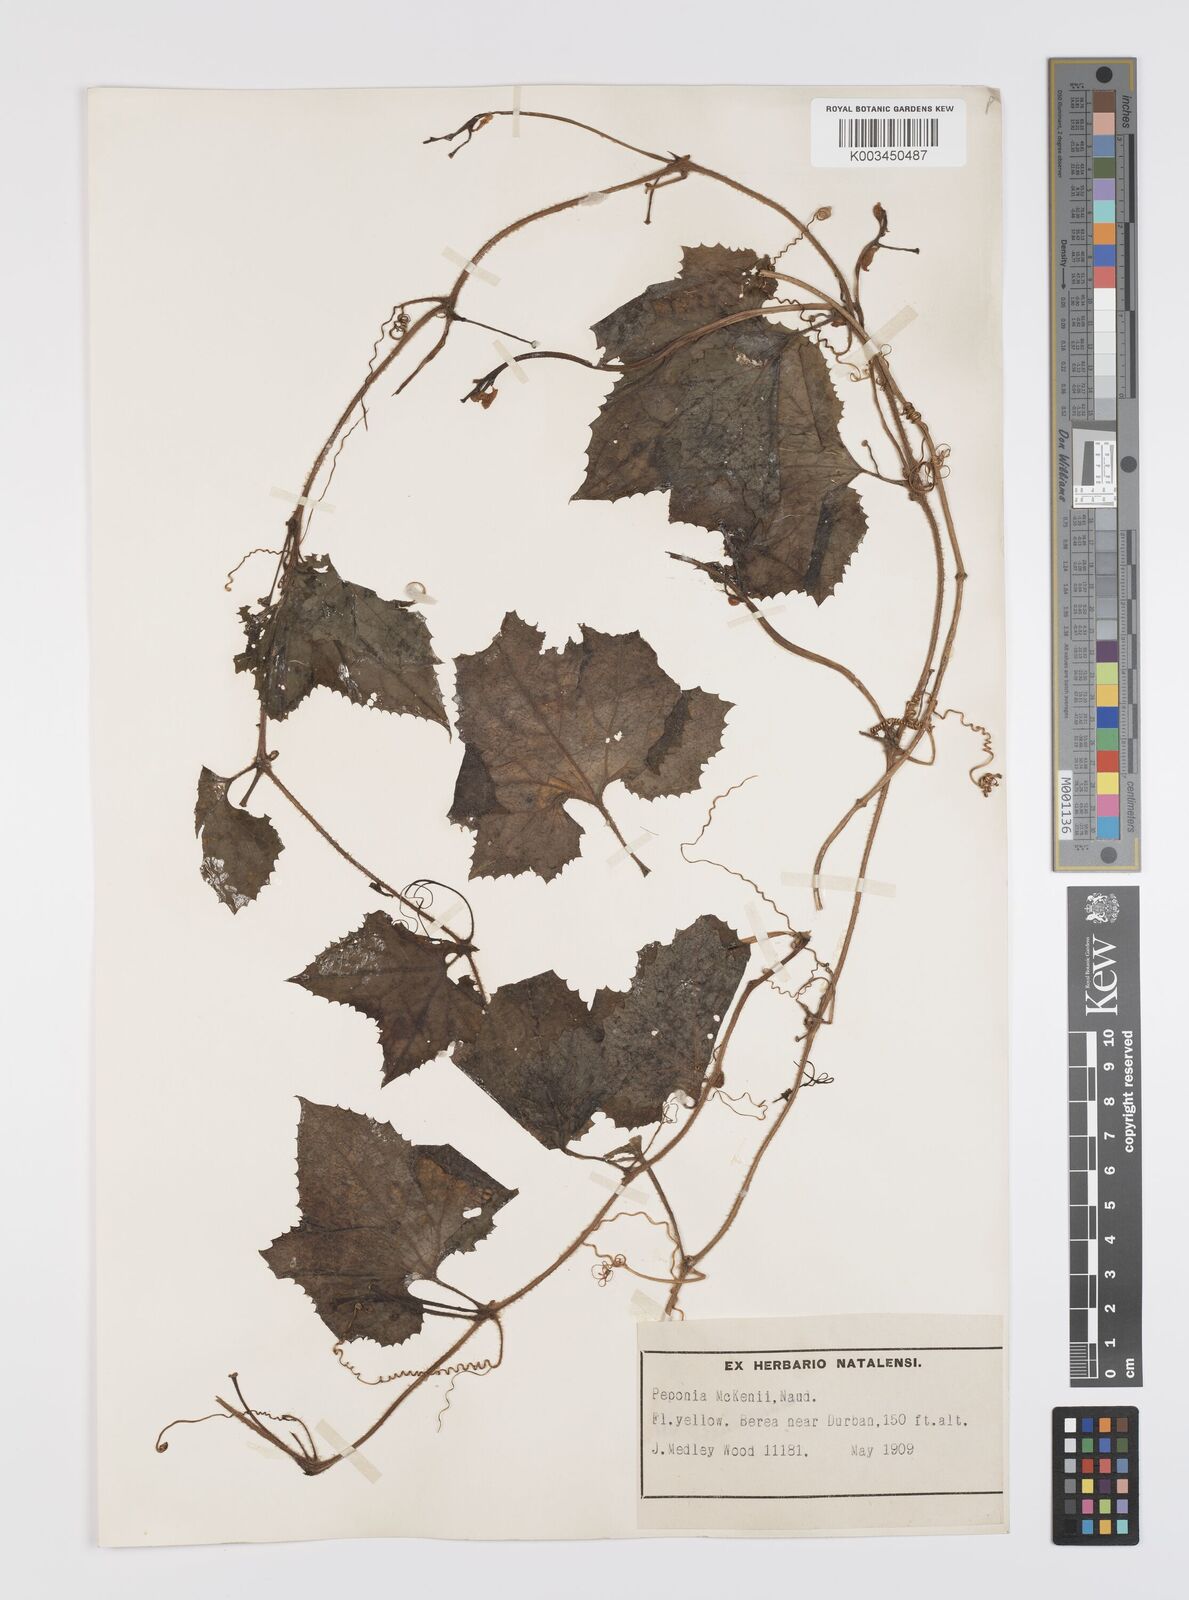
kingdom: Plantae
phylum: Tracheophyta
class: Magnoliopsida
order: Cucurbitales
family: Cucurbitaceae
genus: Peponium
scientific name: Peponium mackenii
